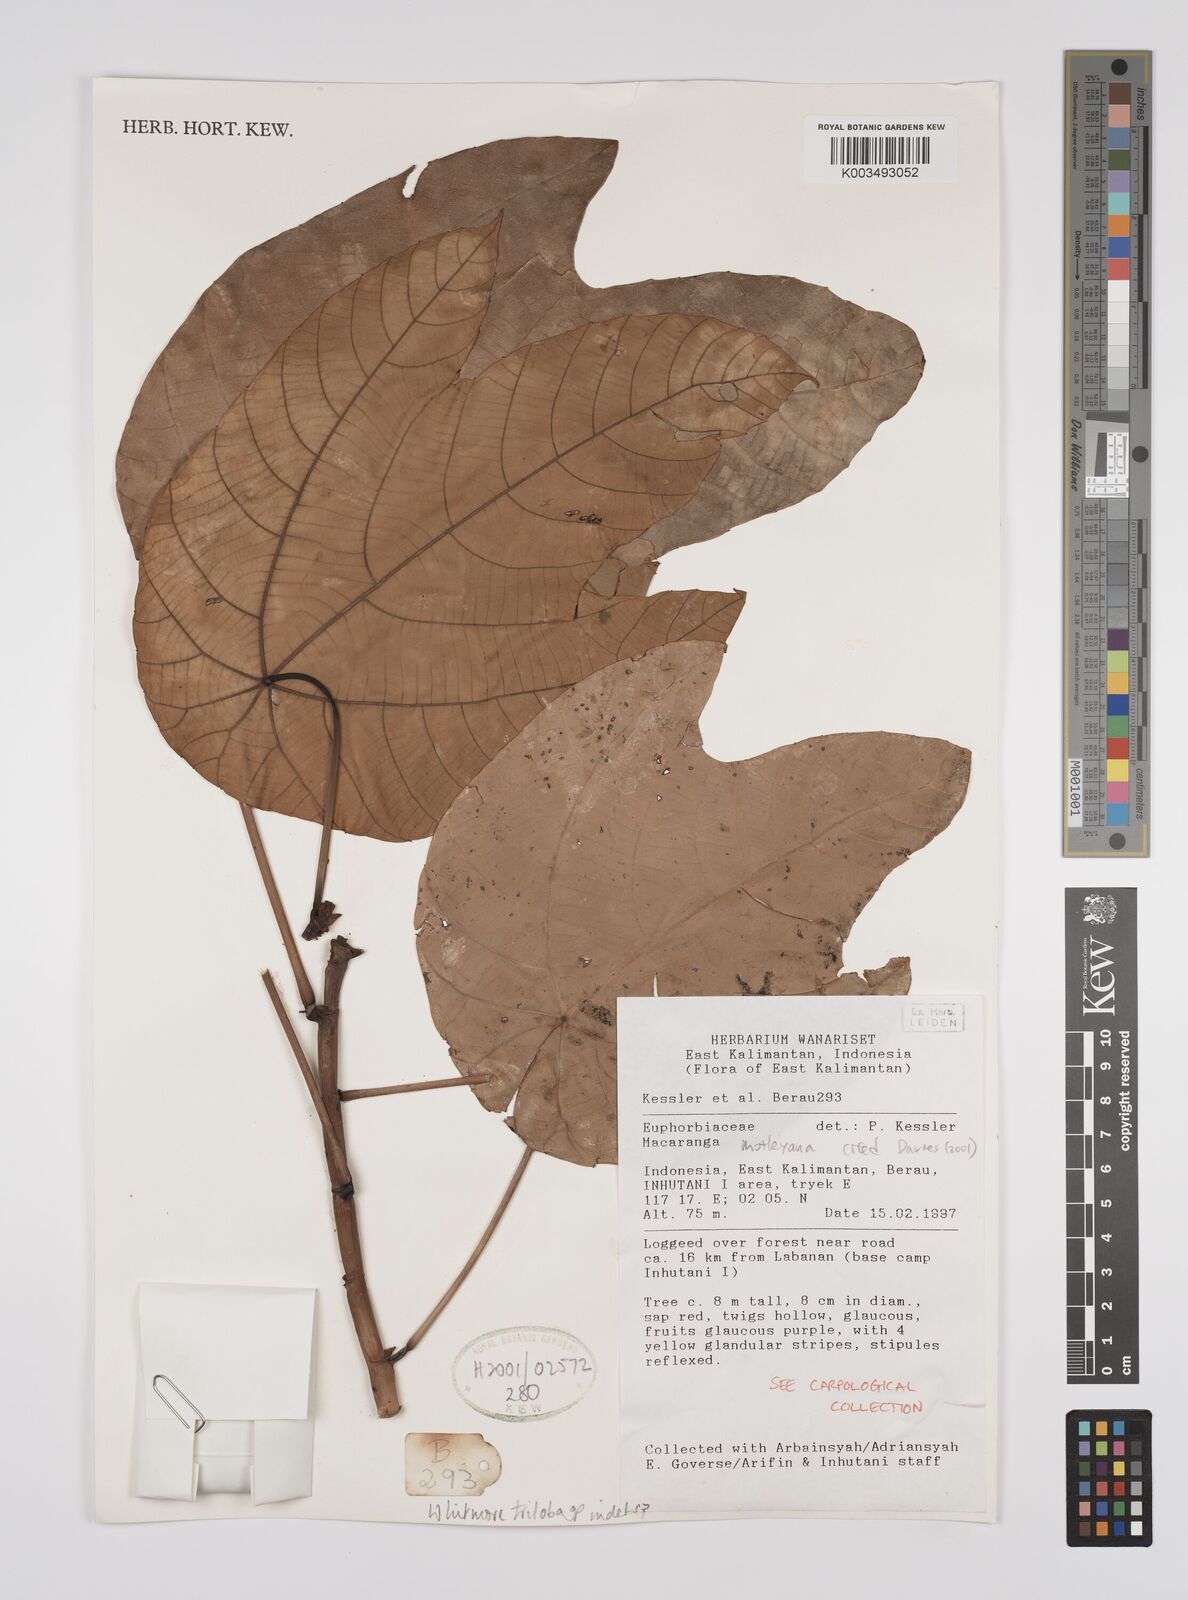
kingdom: Plantae
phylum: Tracheophyta
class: Magnoliopsida
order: Malpighiales
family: Euphorbiaceae
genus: Macaranga
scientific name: Macaranga motleyana
